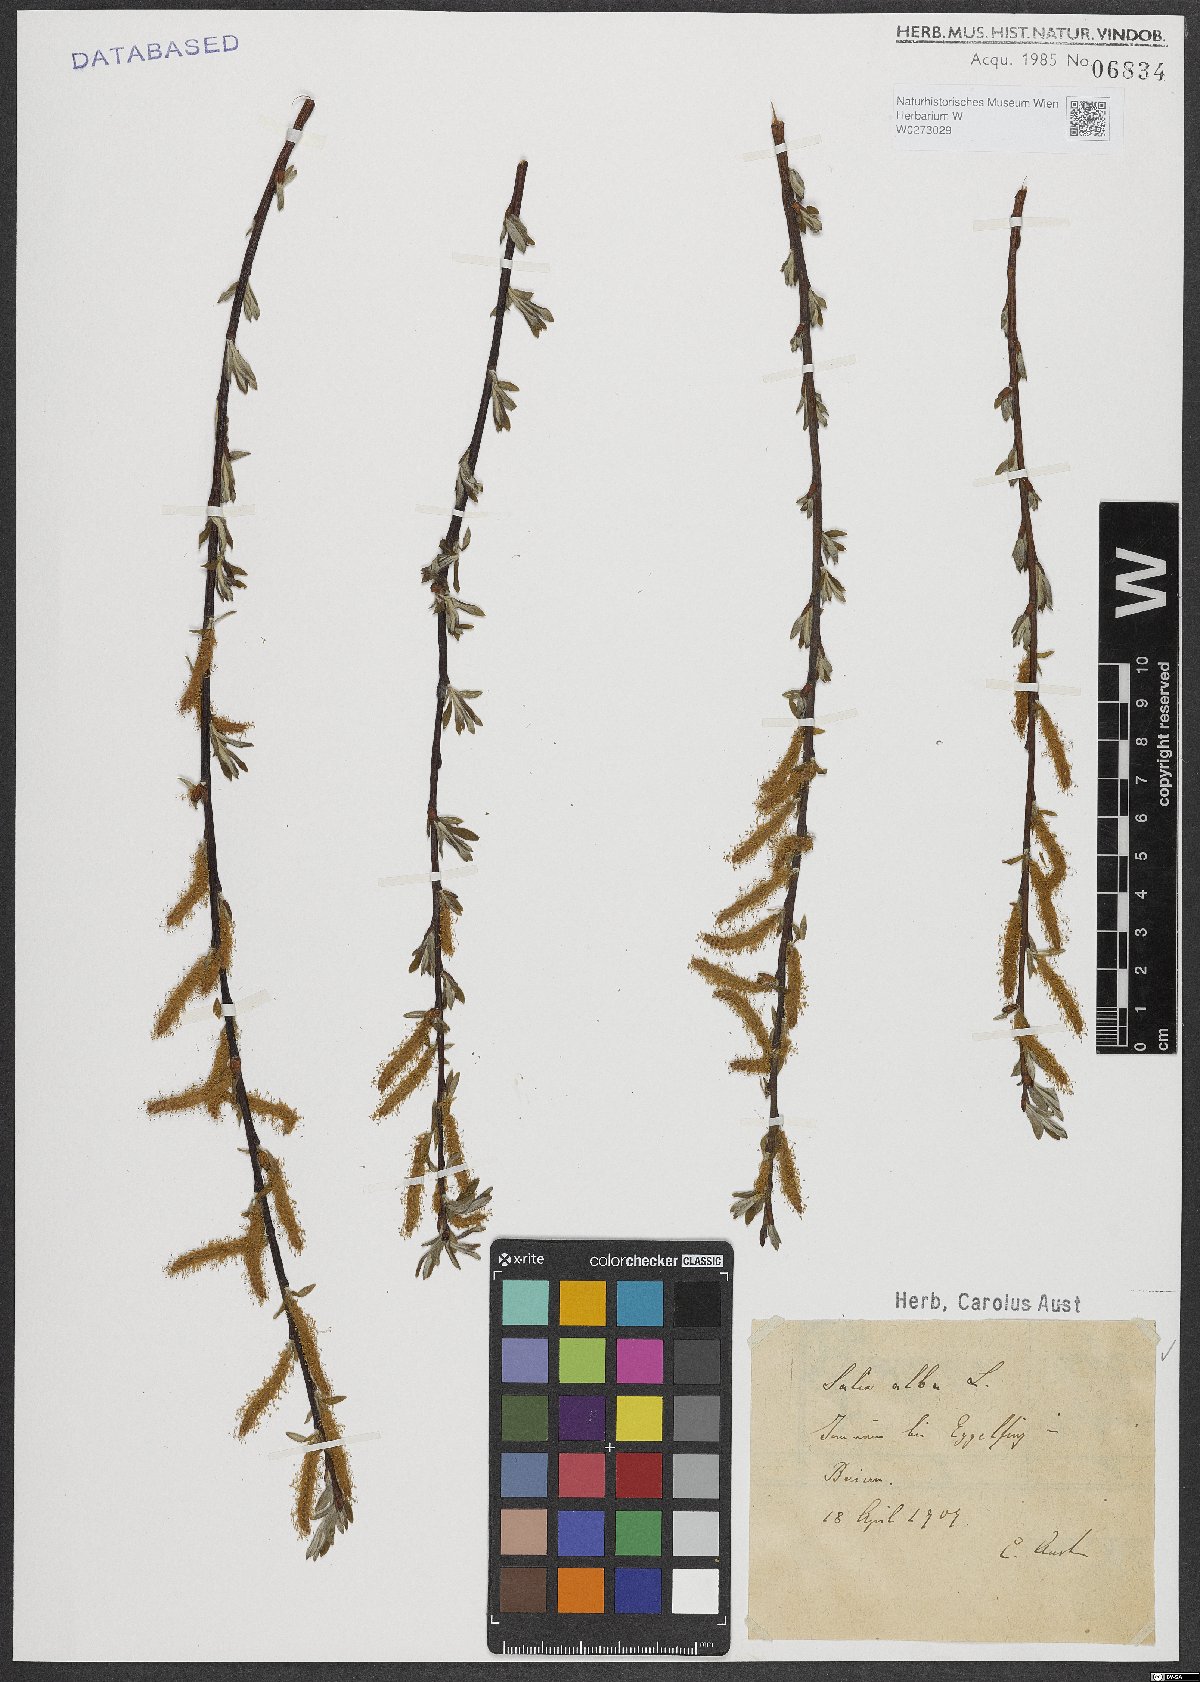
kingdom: Plantae
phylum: Tracheophyta
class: Magnoliopsida
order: Malpighiales
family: Salicaceae
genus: Salix
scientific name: Salix alba
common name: White willow
